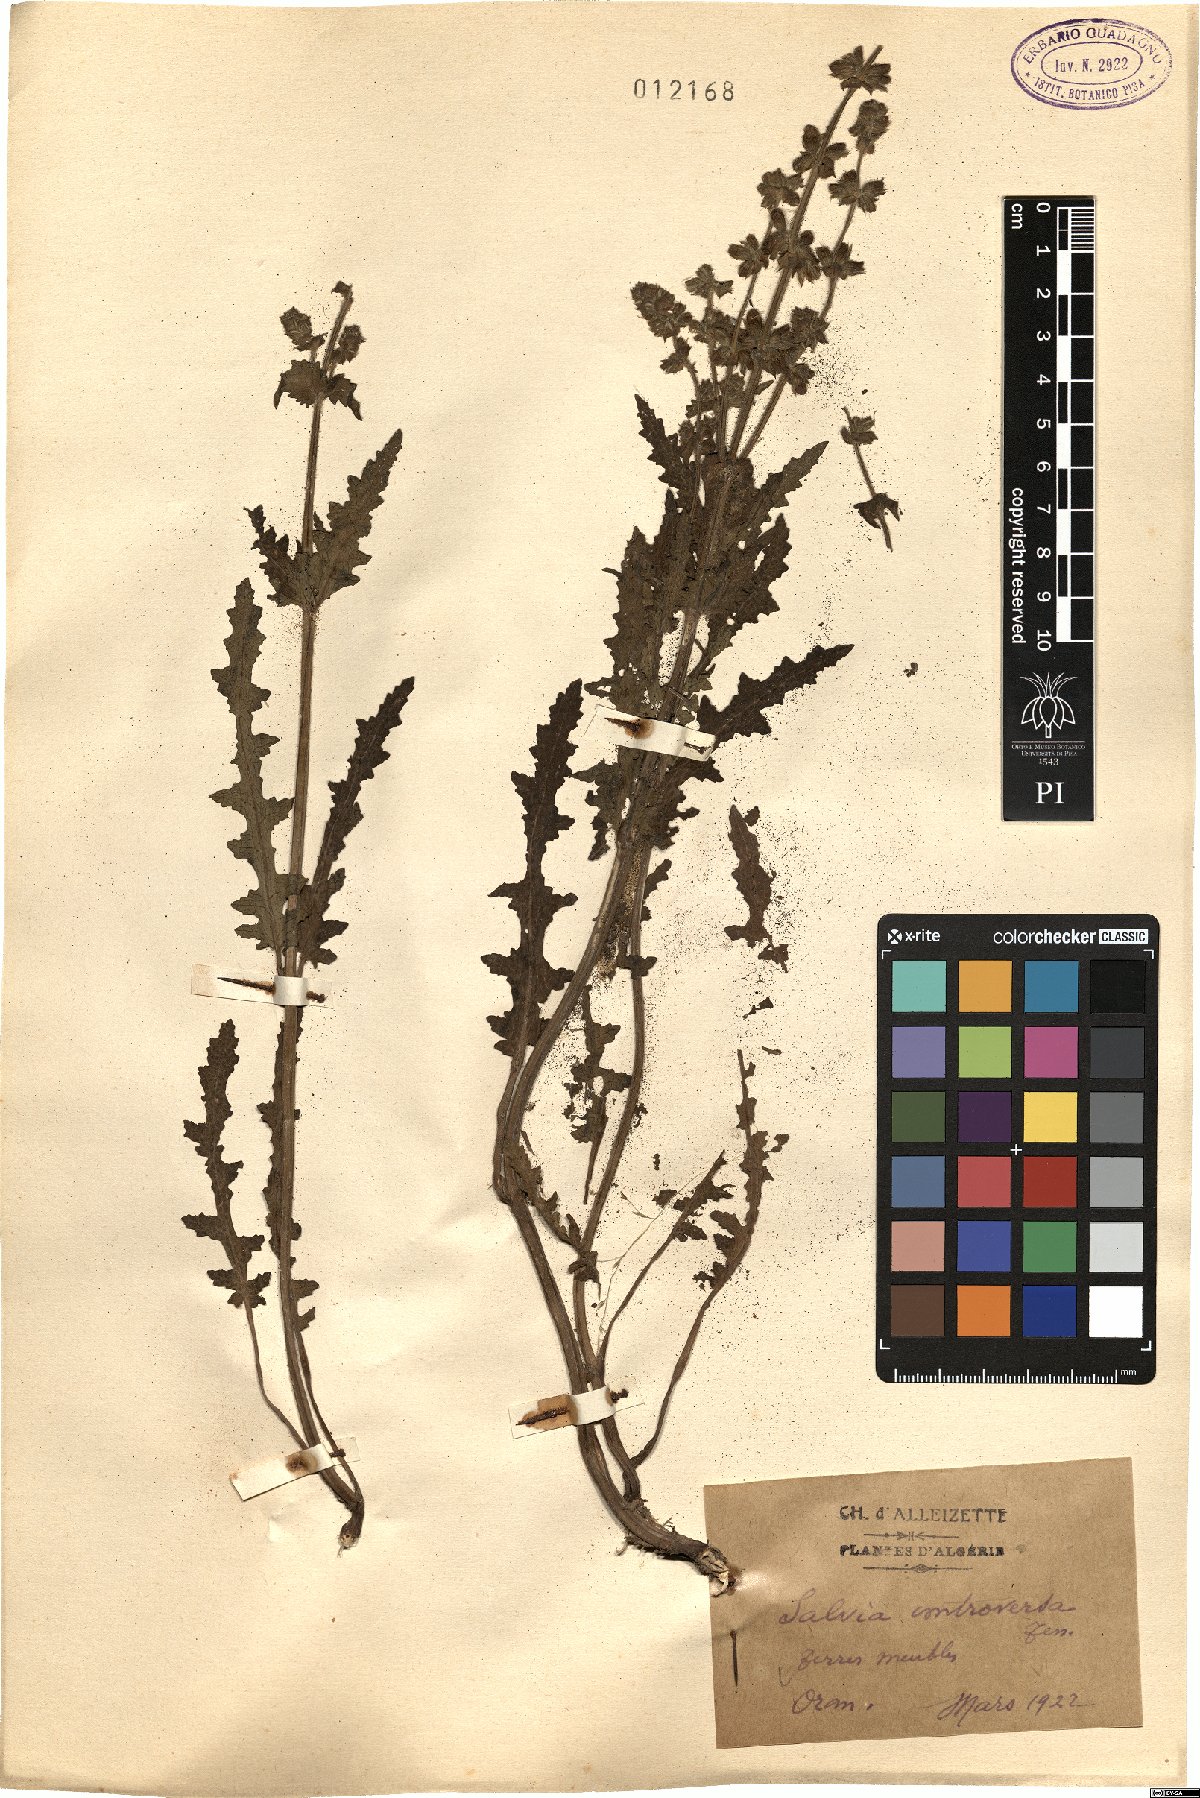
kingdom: Plantae
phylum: Tracheophyta
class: Magnoliopsida
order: Lamiales
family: Lamiaceae
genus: Salvia
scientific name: Salvia verbenaca
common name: Wild clary
